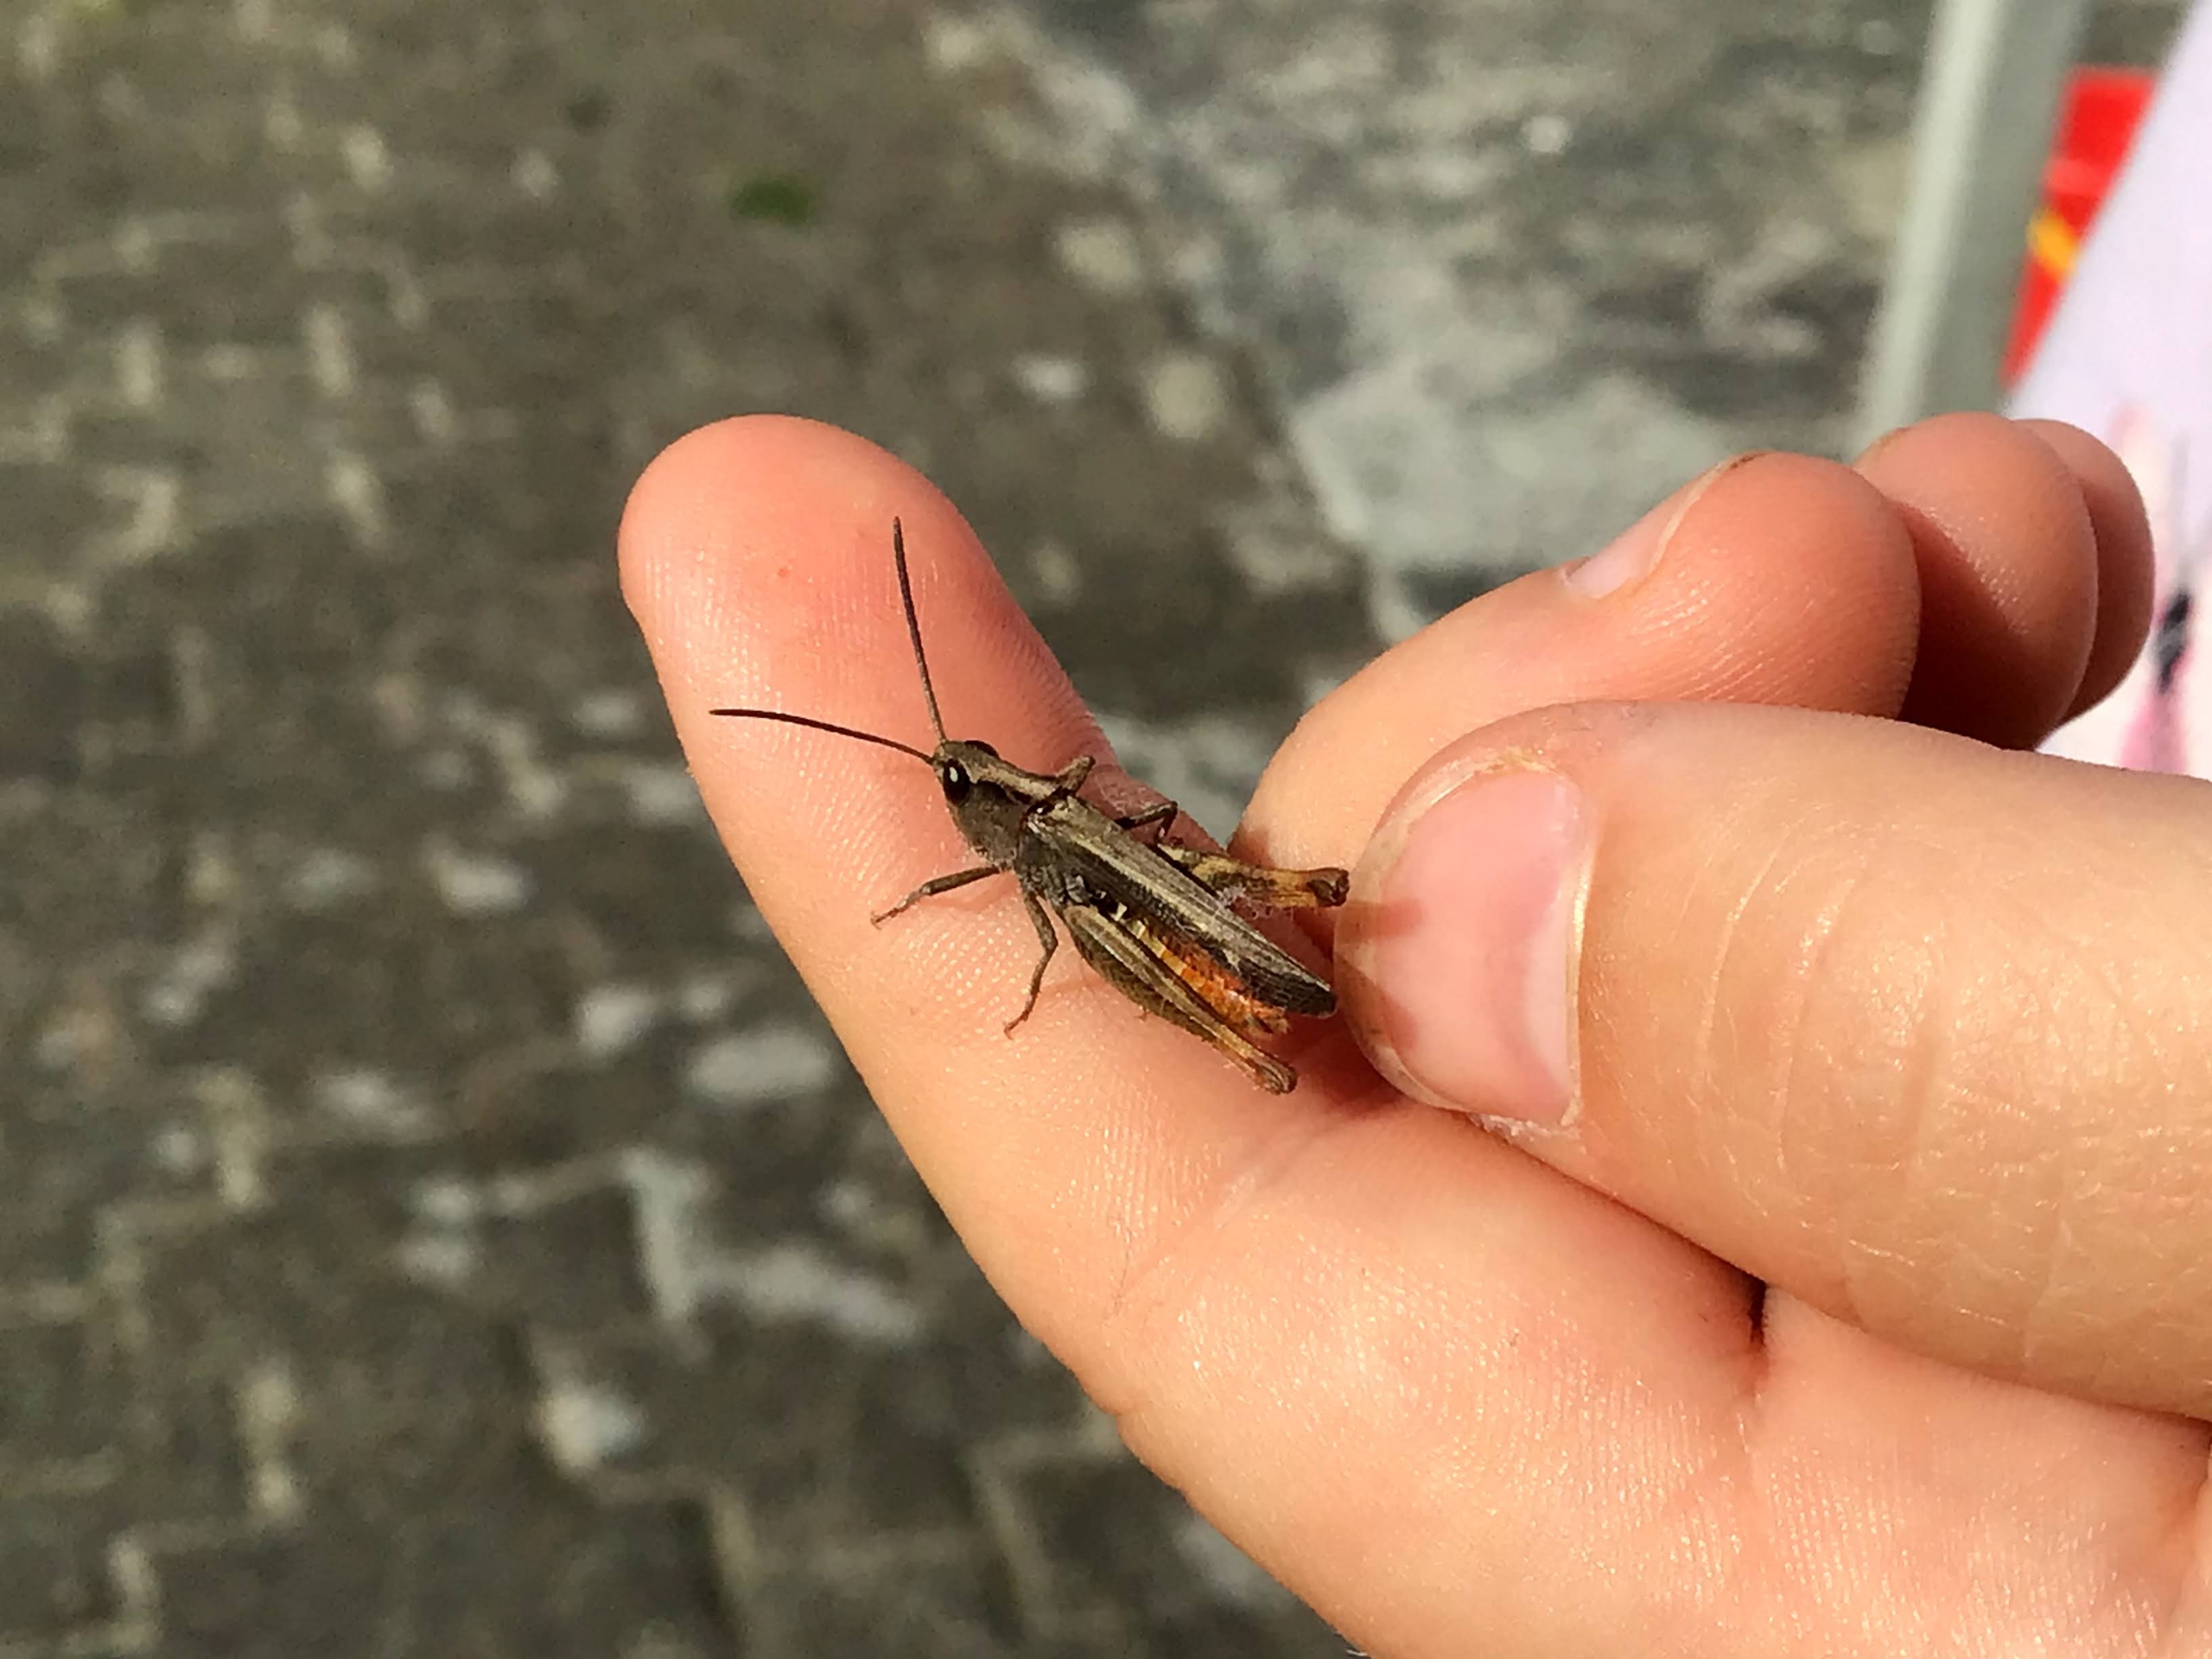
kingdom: Animalia
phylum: Arthropoda
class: Insecta
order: Orthoptera
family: Acrididae
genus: Chorthippus
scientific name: Chorthippus vagans
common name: Steppegræshoppe
